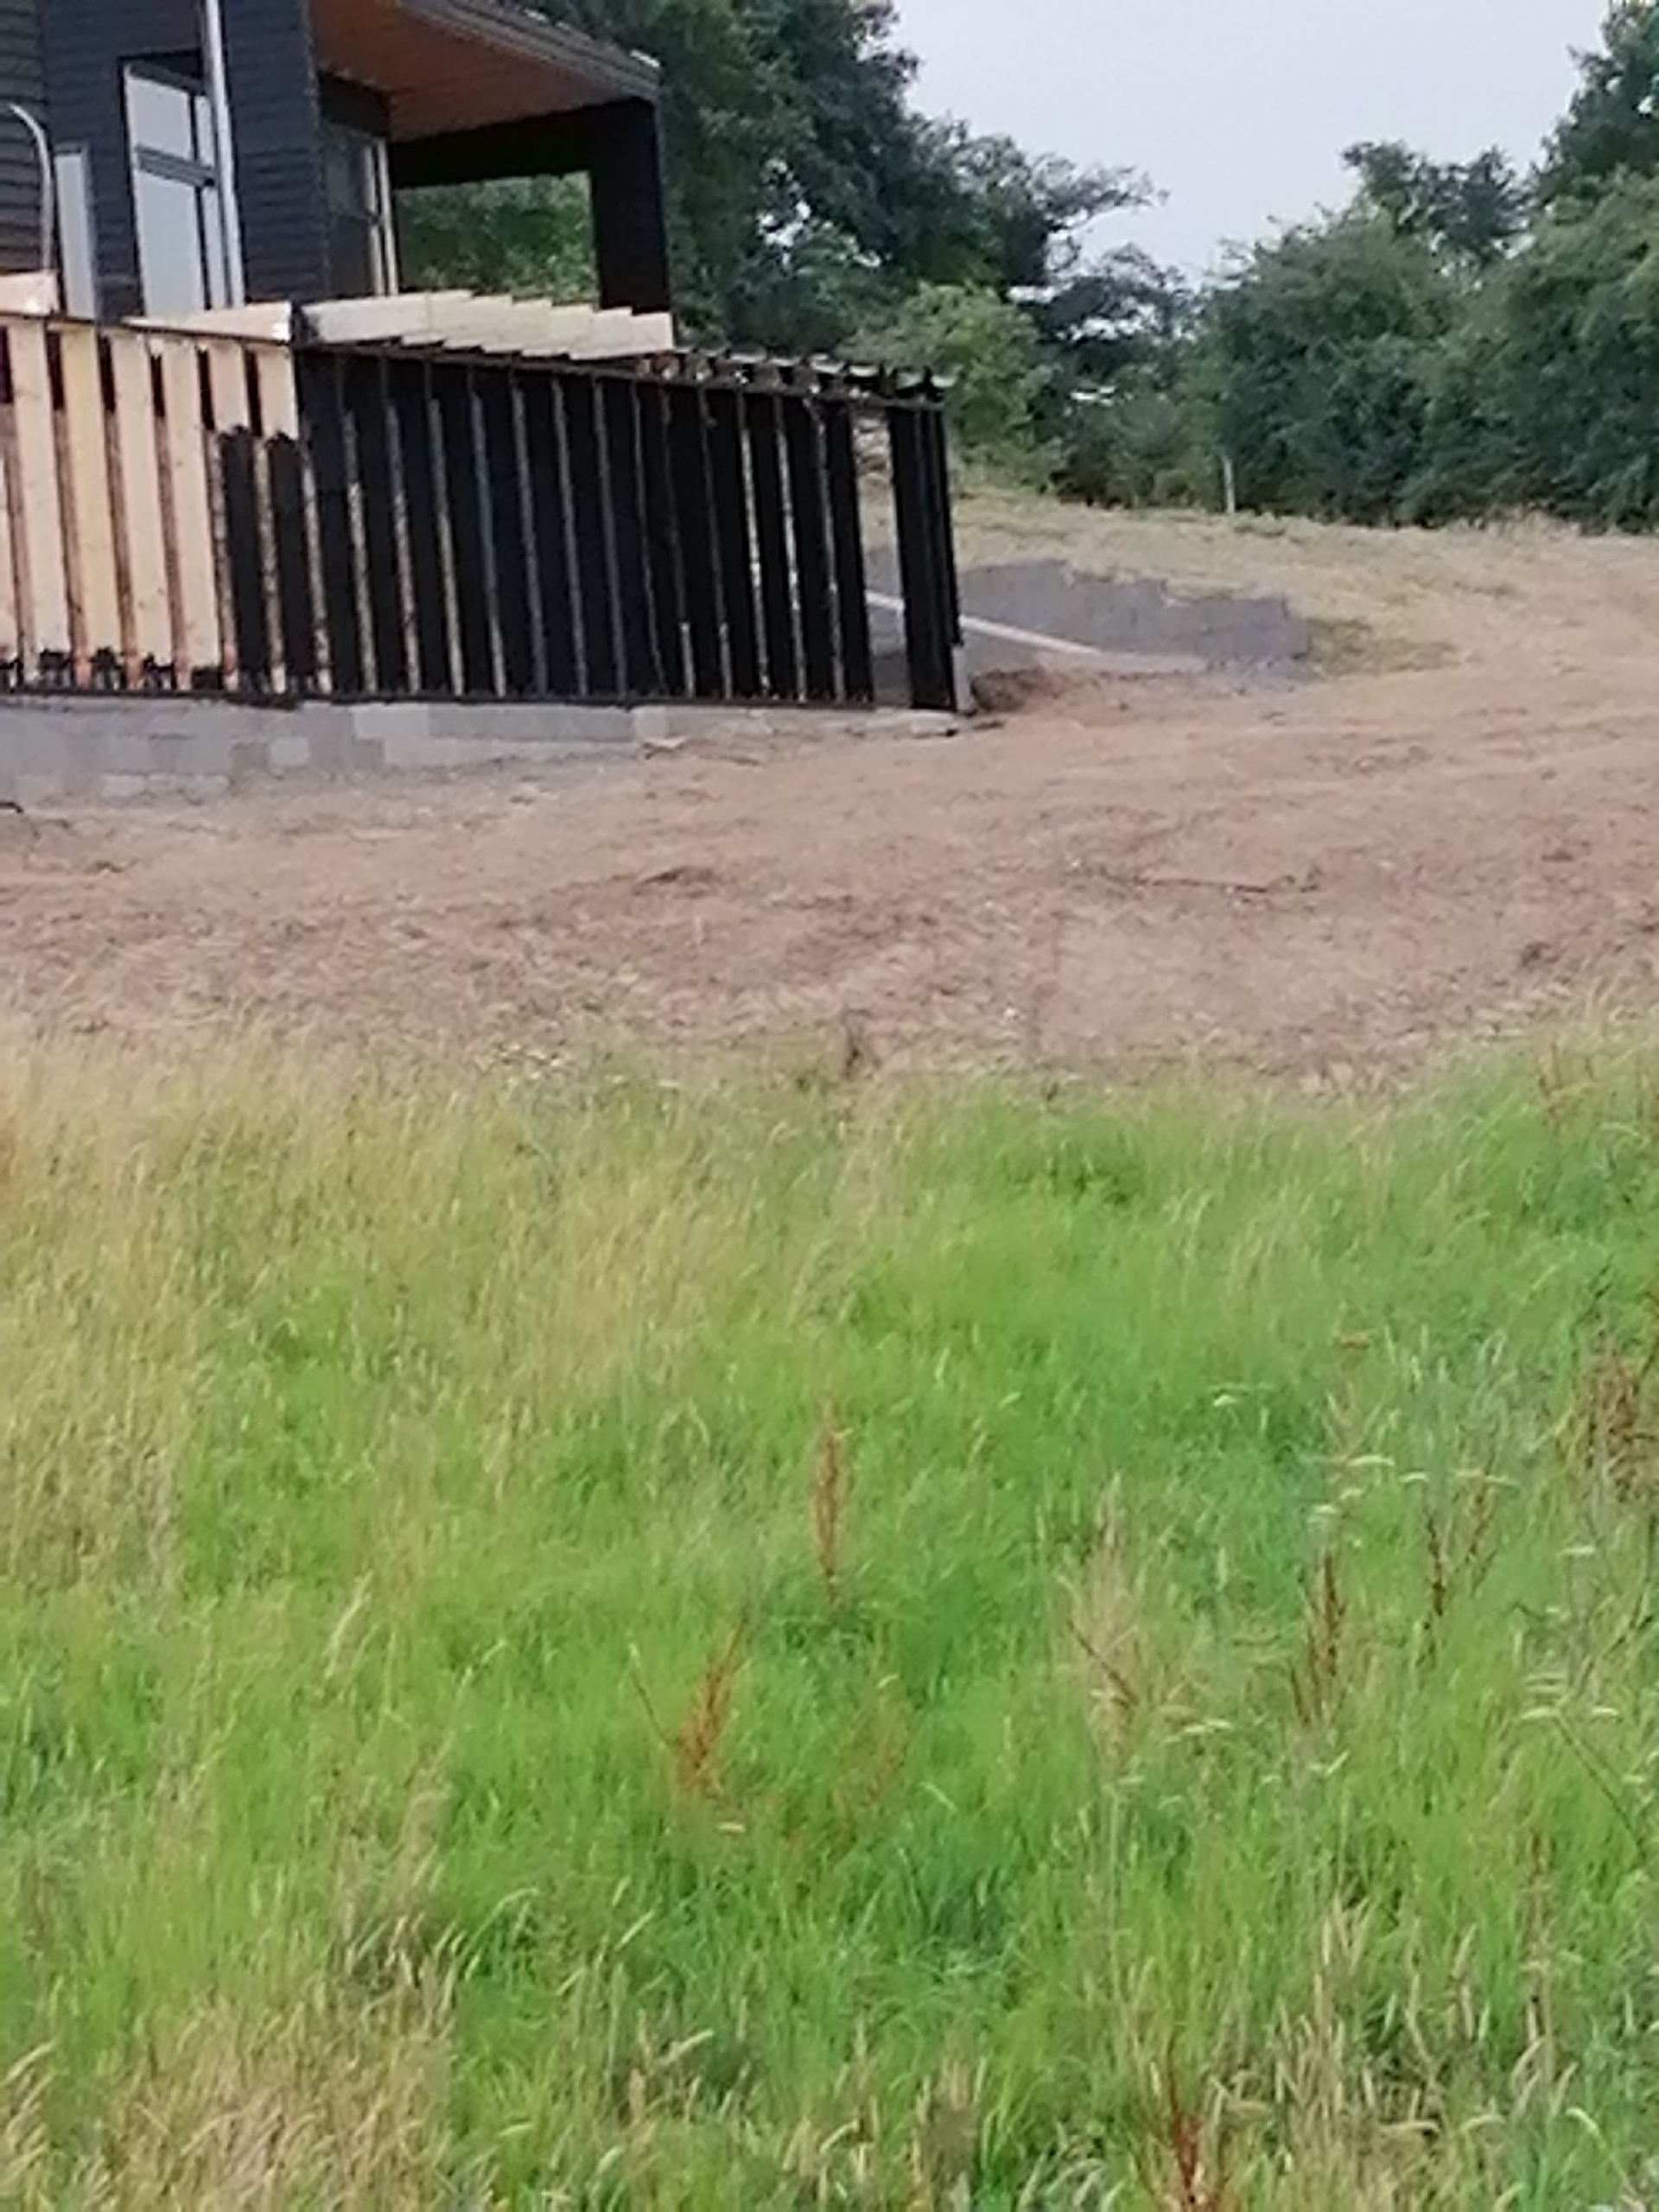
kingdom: Animalia
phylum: Chordata
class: Mammalia
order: Lagomorpha
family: Leporidae
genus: Lepus
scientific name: Lepus europaeus
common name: Hare
